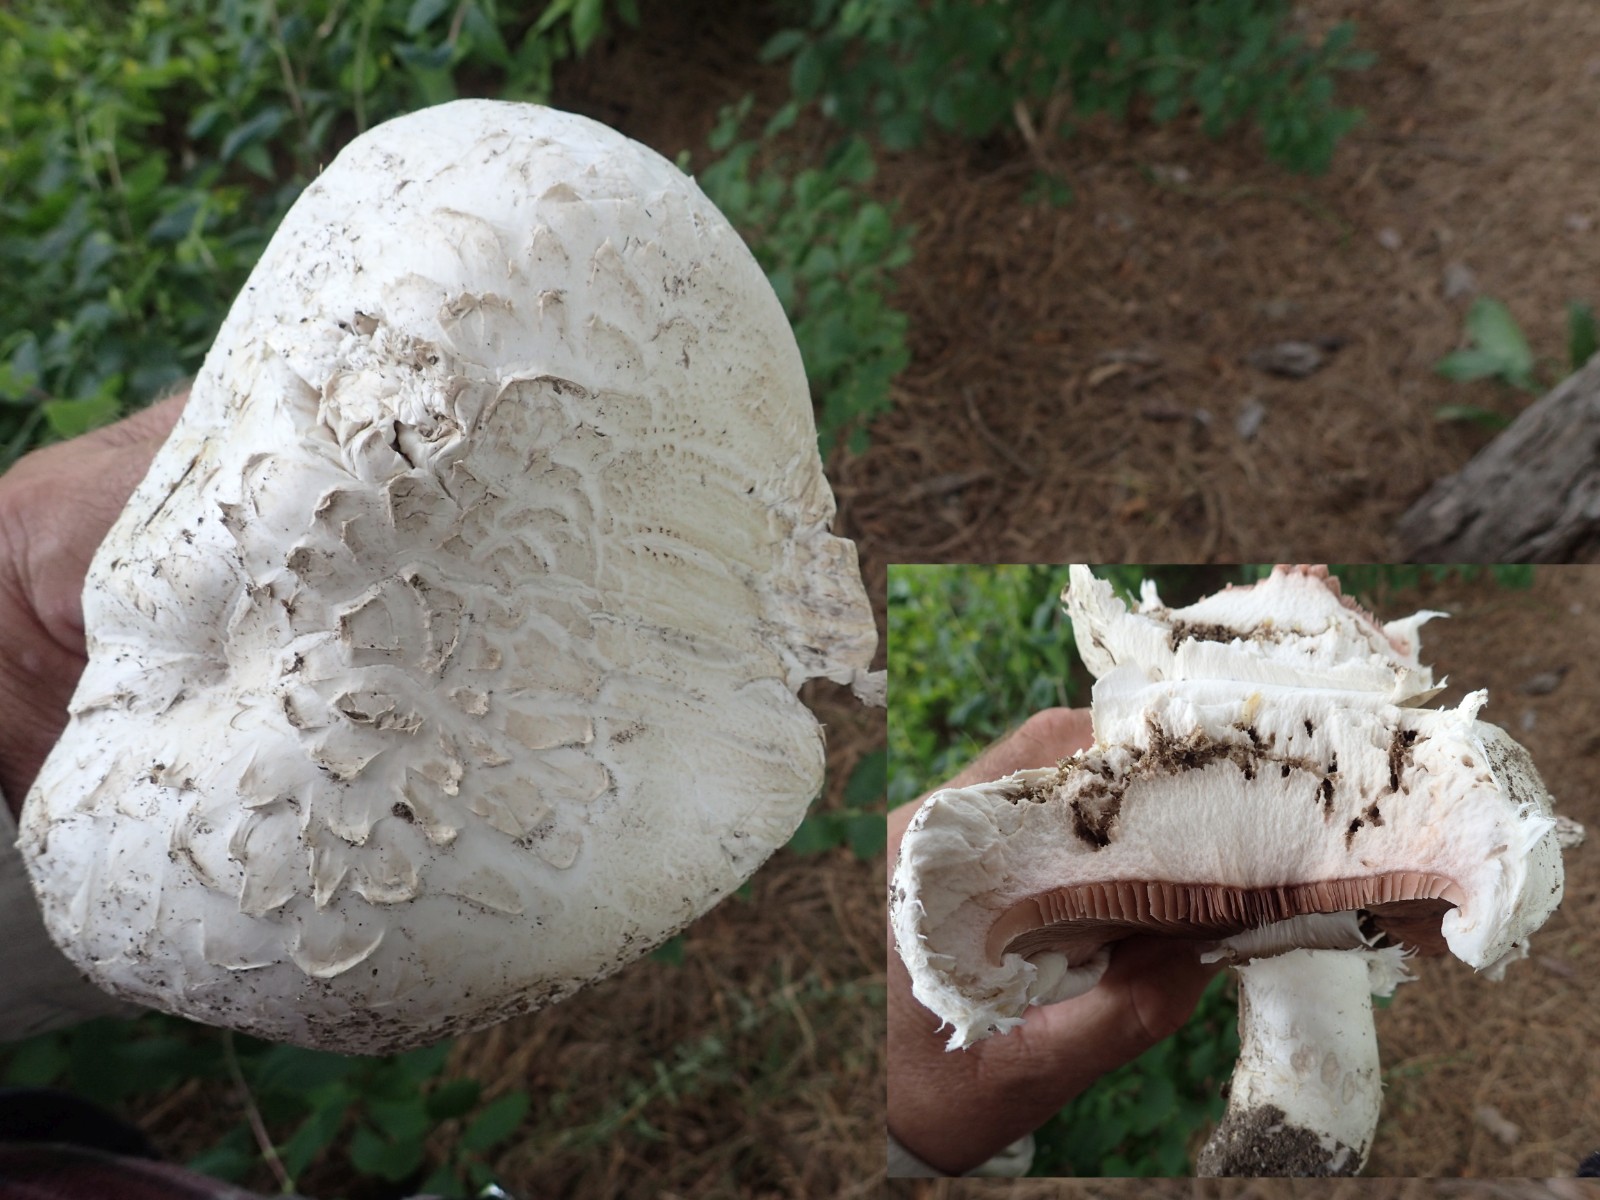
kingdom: Fungi
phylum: Basidiomycota
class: Agaricomycetes
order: Agaricales
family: Agaricaceae
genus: Agaricus
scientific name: Agaricus bernardii
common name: strandengs-champignon
